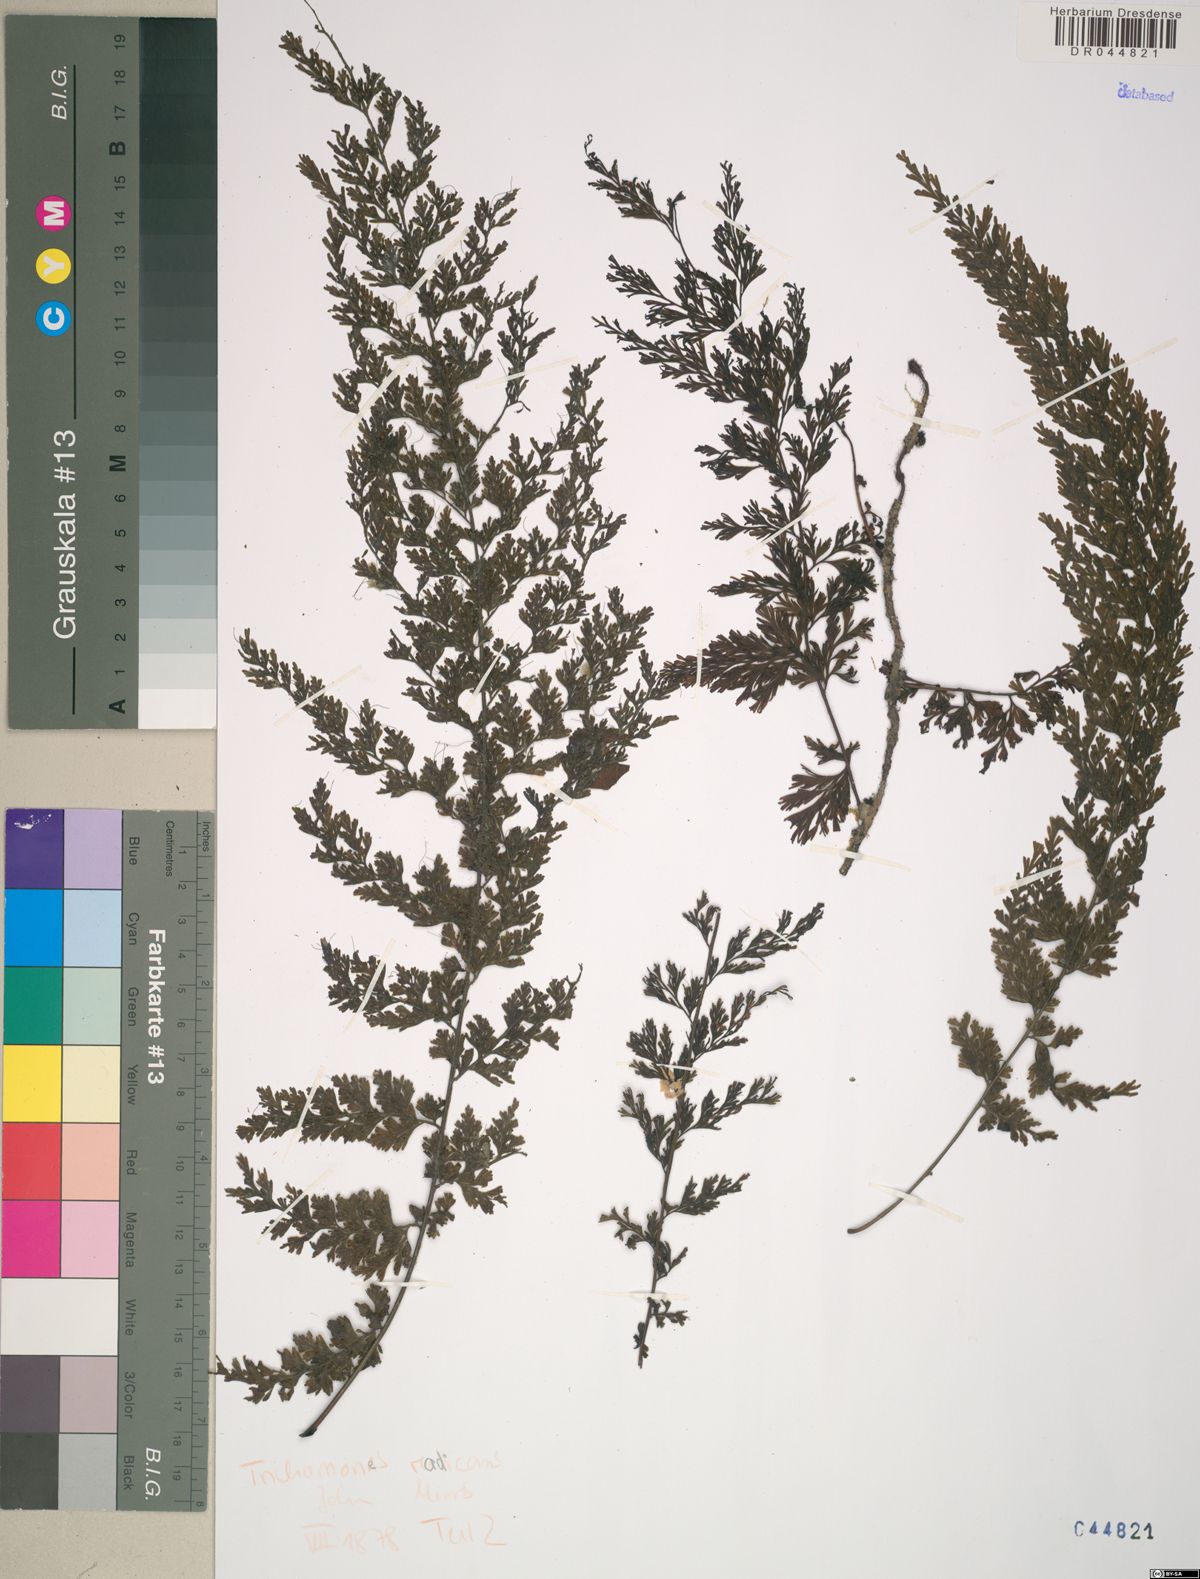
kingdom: Plantae
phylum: Tracheophyta
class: Polypodiopsida
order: Hymenophyllales
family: Hymenophyllaceae
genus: Vandenboschia
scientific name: Vandenboschia radicans
